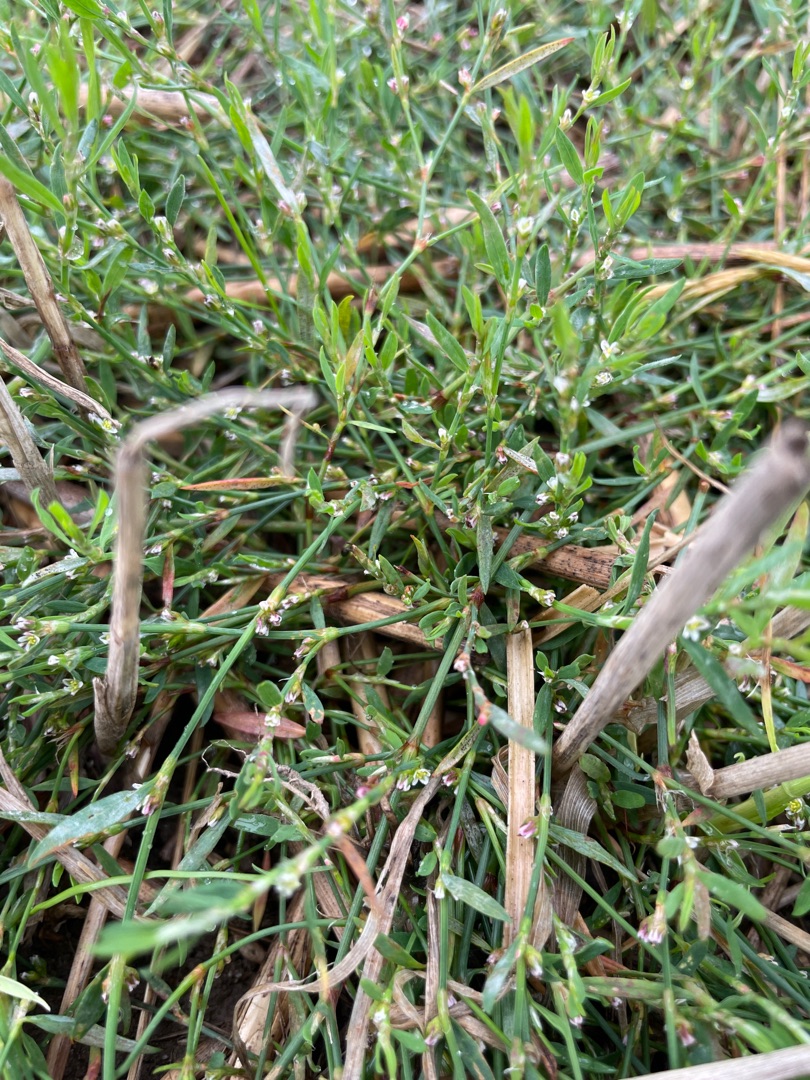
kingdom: Plantae
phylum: Tracheophyta
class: Magnoliopsida
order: Caryophyllales
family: Polygonaceae
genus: Polygonum
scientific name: Polygonum aviculare
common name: Spidsbladet vej-pileurt
